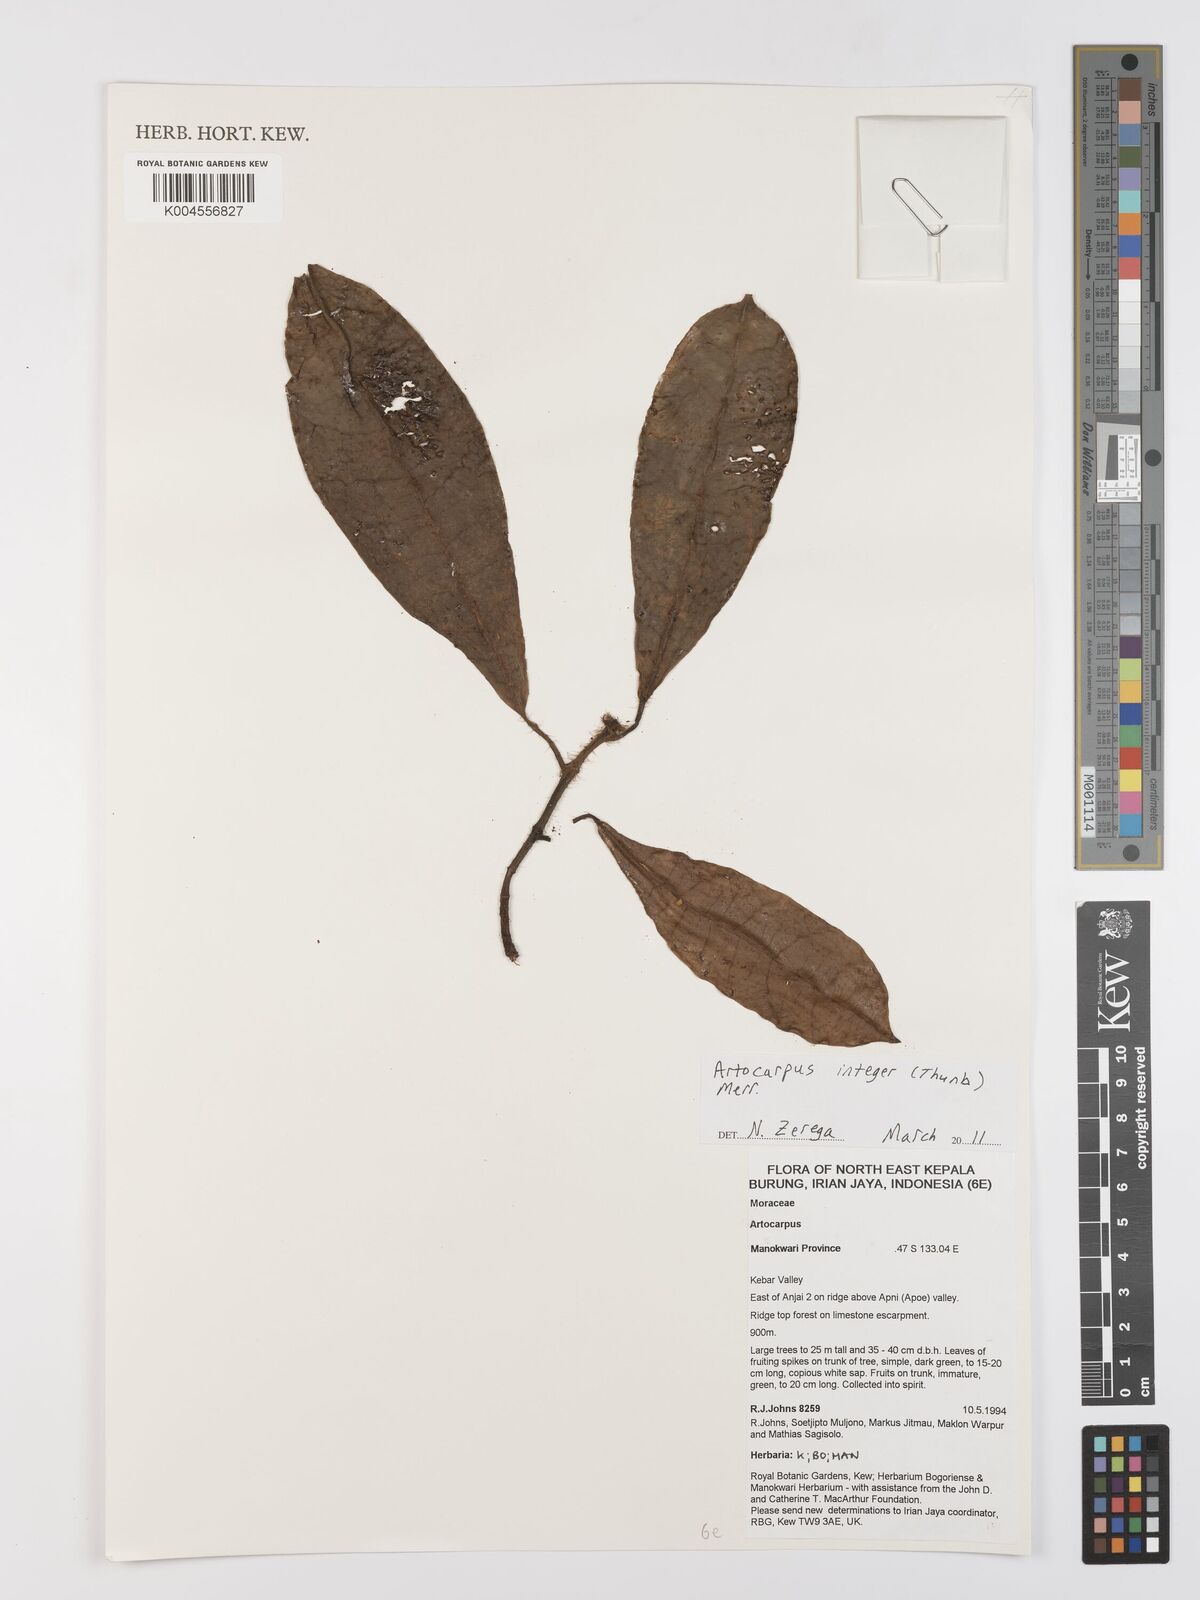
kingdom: Plantae
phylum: Tracheophyta
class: Magnoliopsida
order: Rosales
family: Moraceae
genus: Artocarpus
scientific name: Artocarpus
